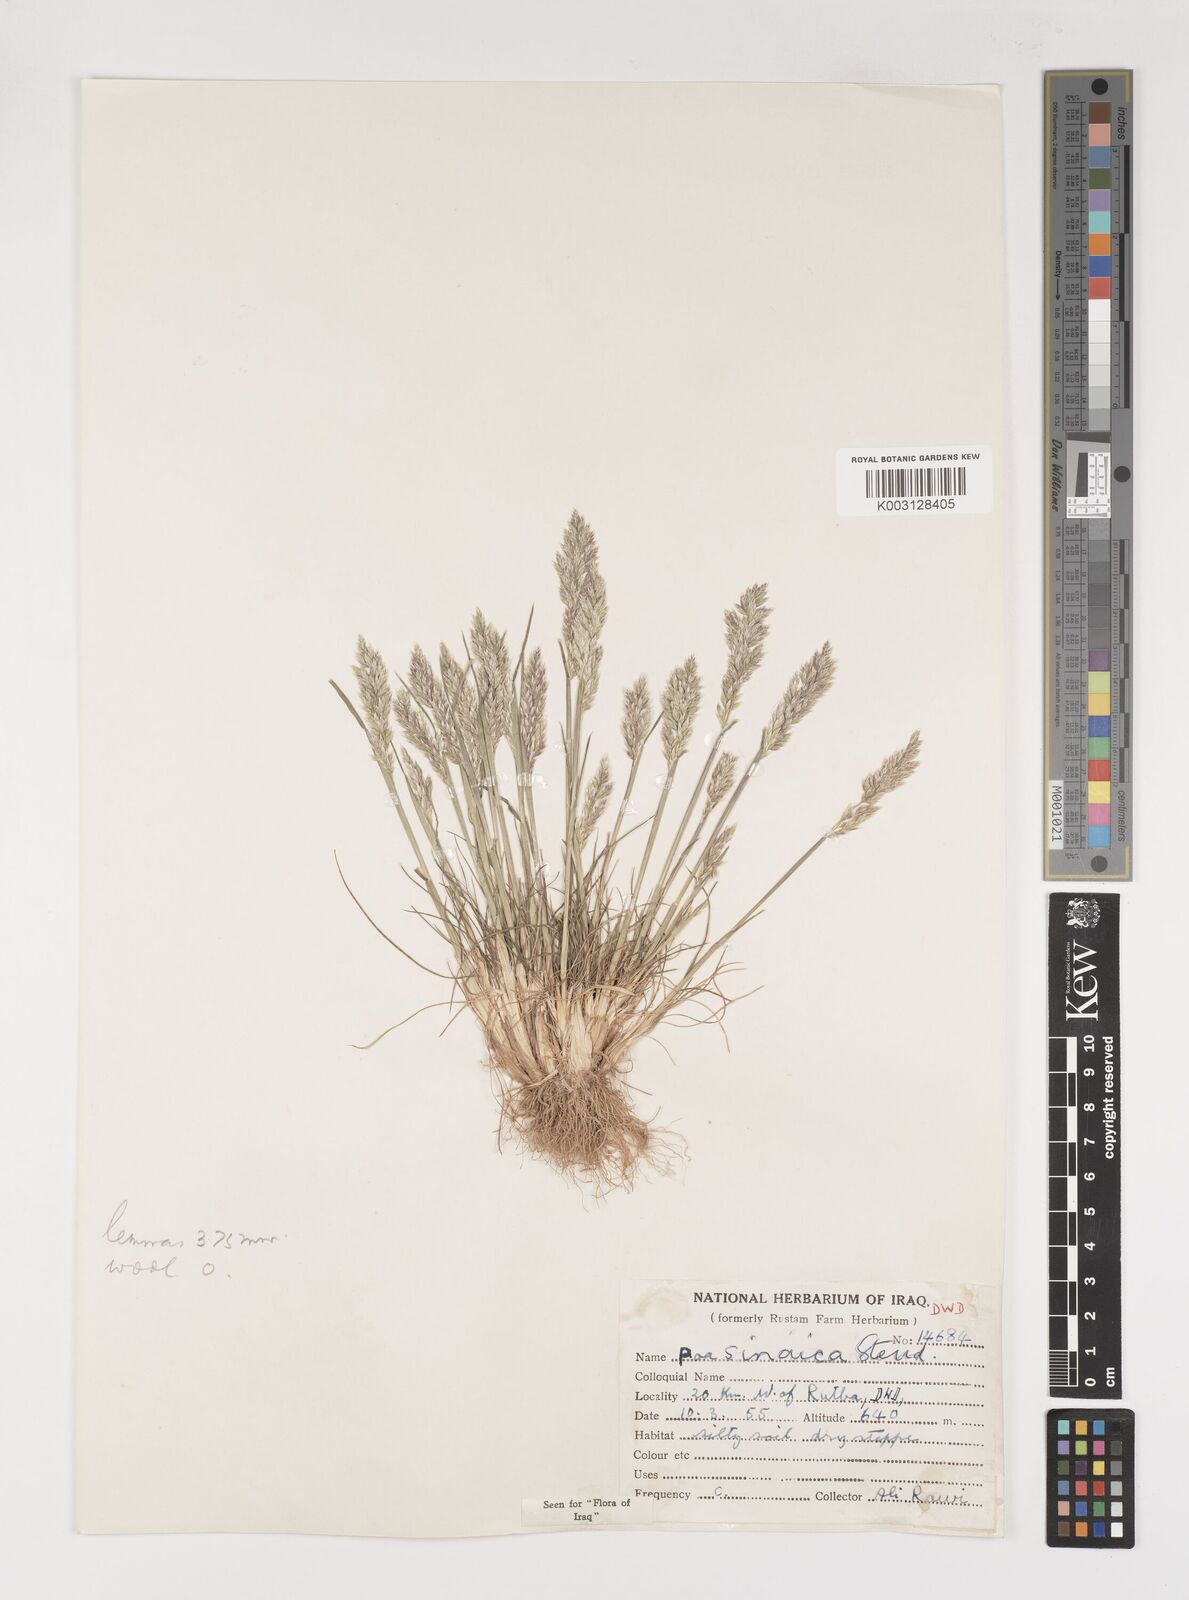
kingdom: Plantae
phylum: Tracheophyta
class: Liliopsida
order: Poales
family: Poaceae
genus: Poa
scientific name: Poa sinaica
